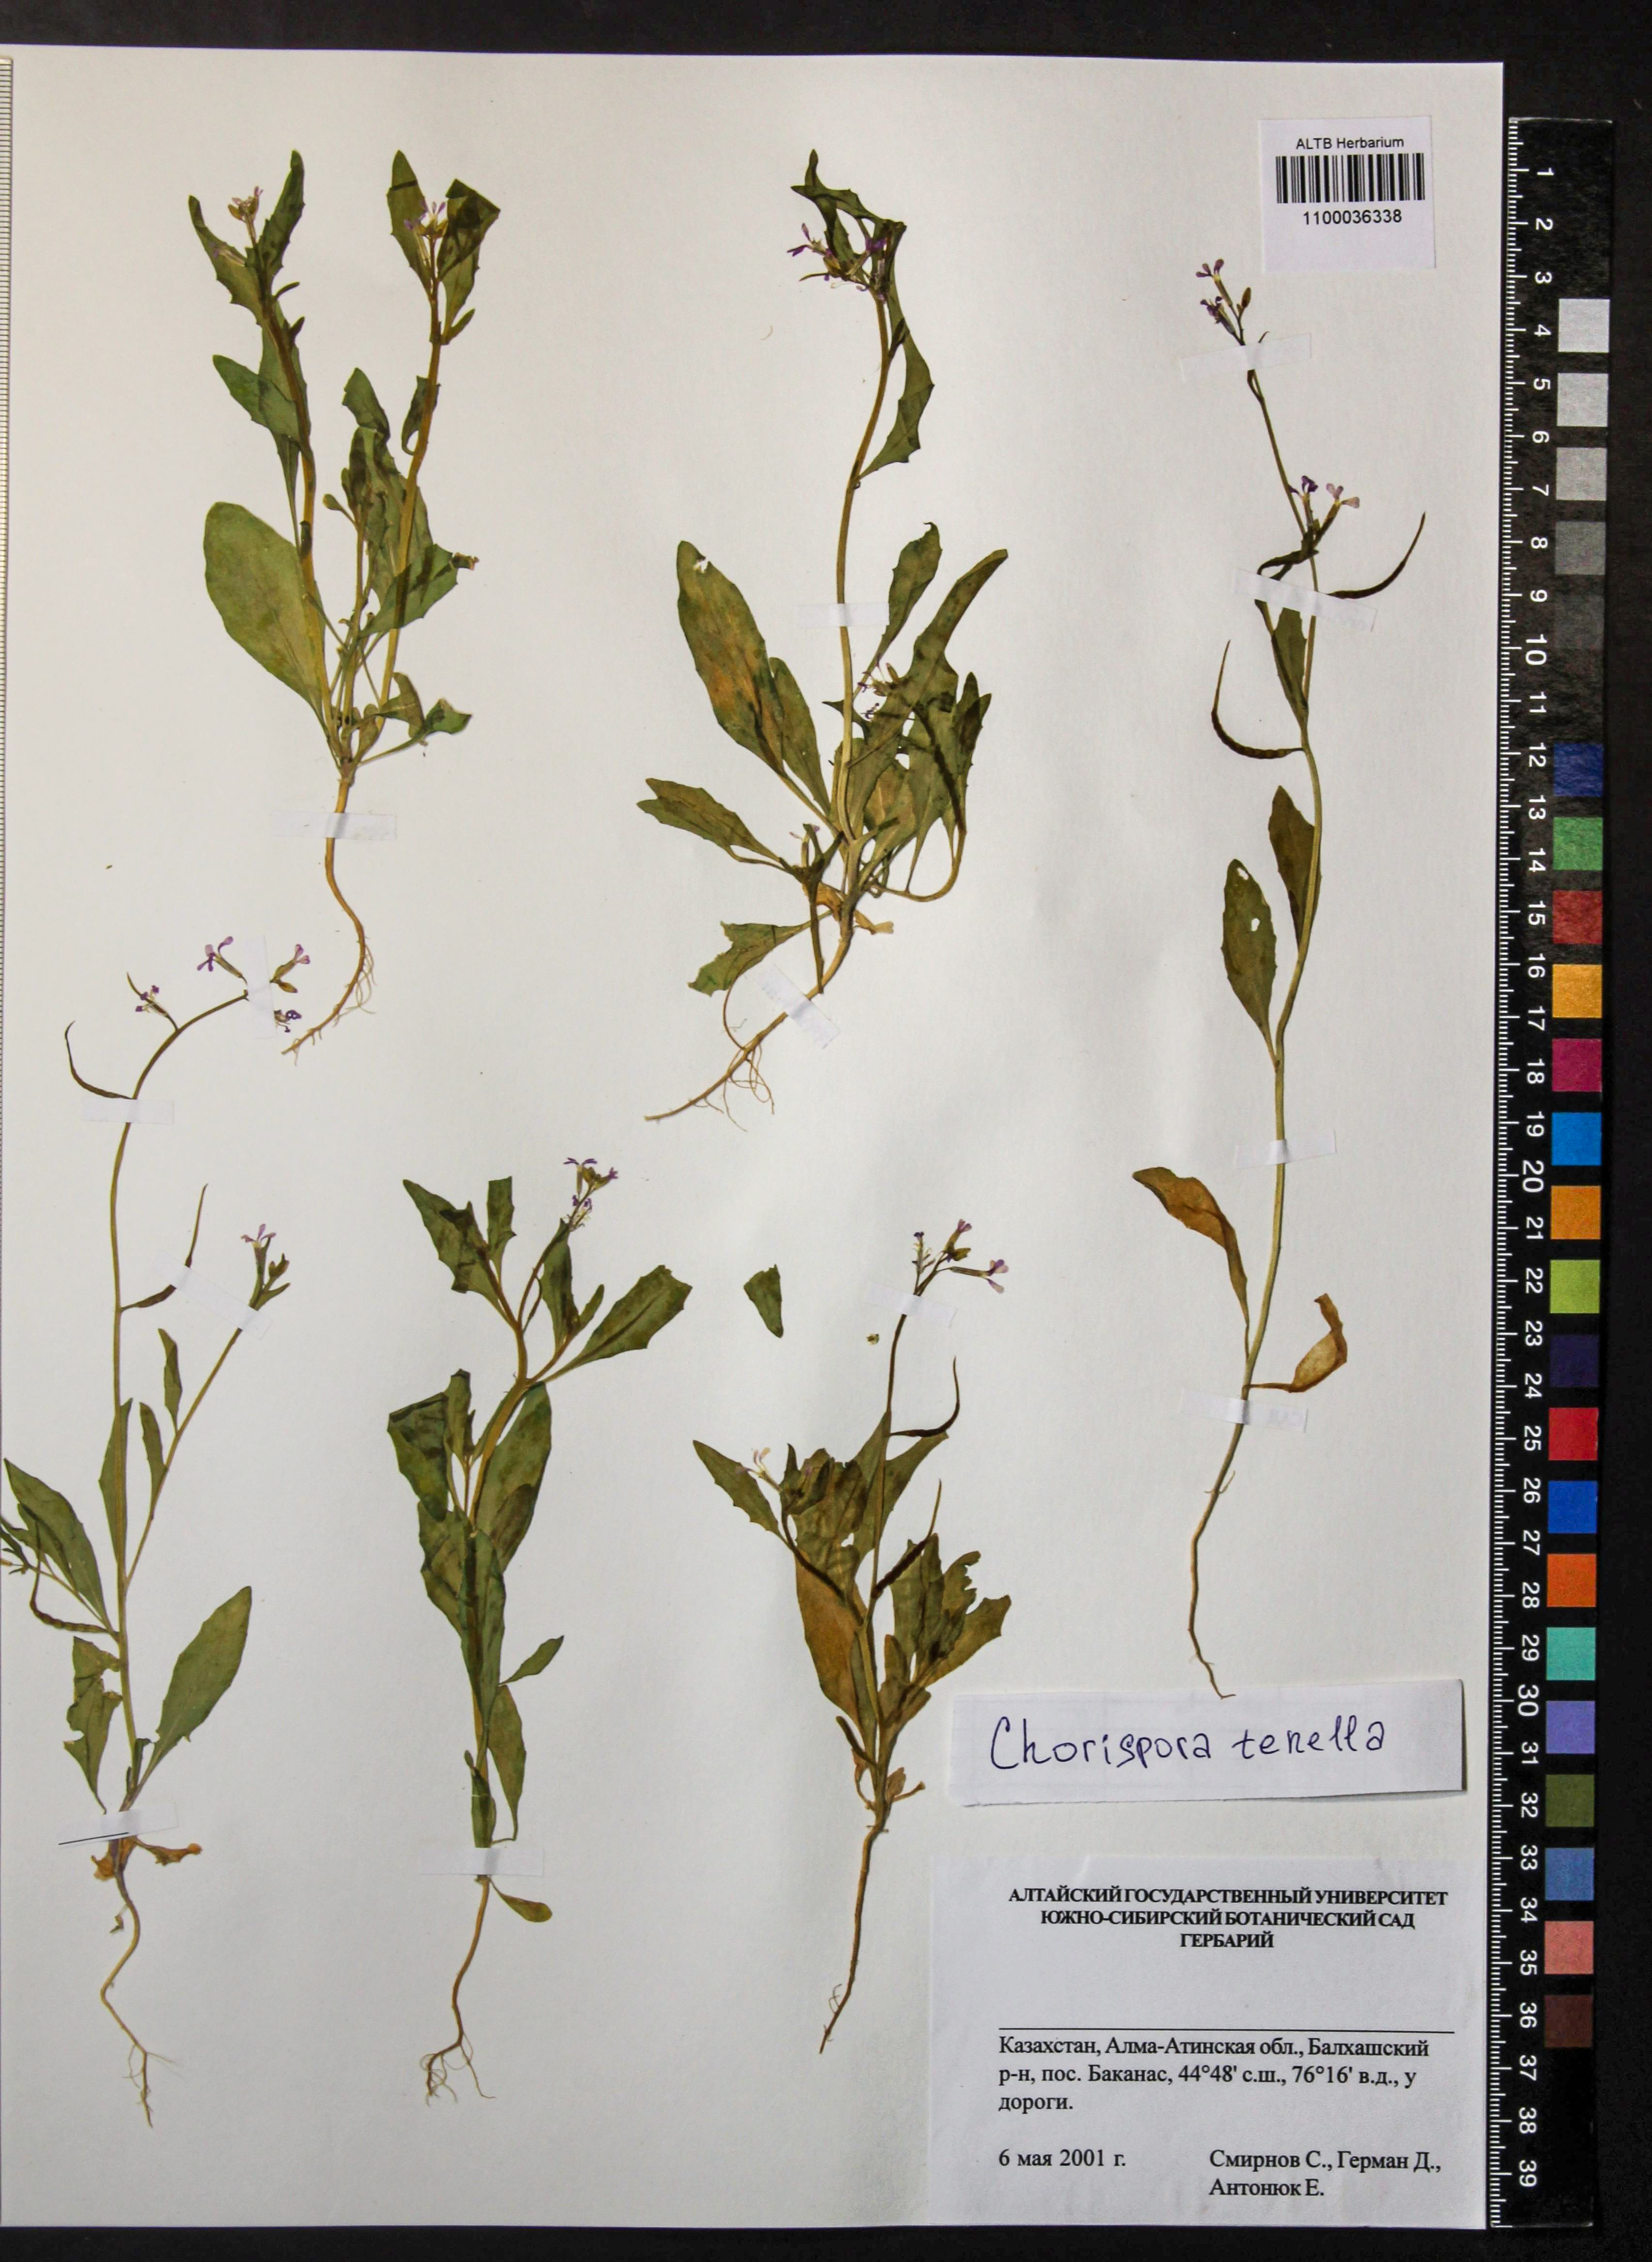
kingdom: Plantae
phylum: Tracheophyta
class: Magnoliopsida
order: Brassicales
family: Brassicaceae
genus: Chorispora
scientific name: Chorispora tenella
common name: Crossflower
